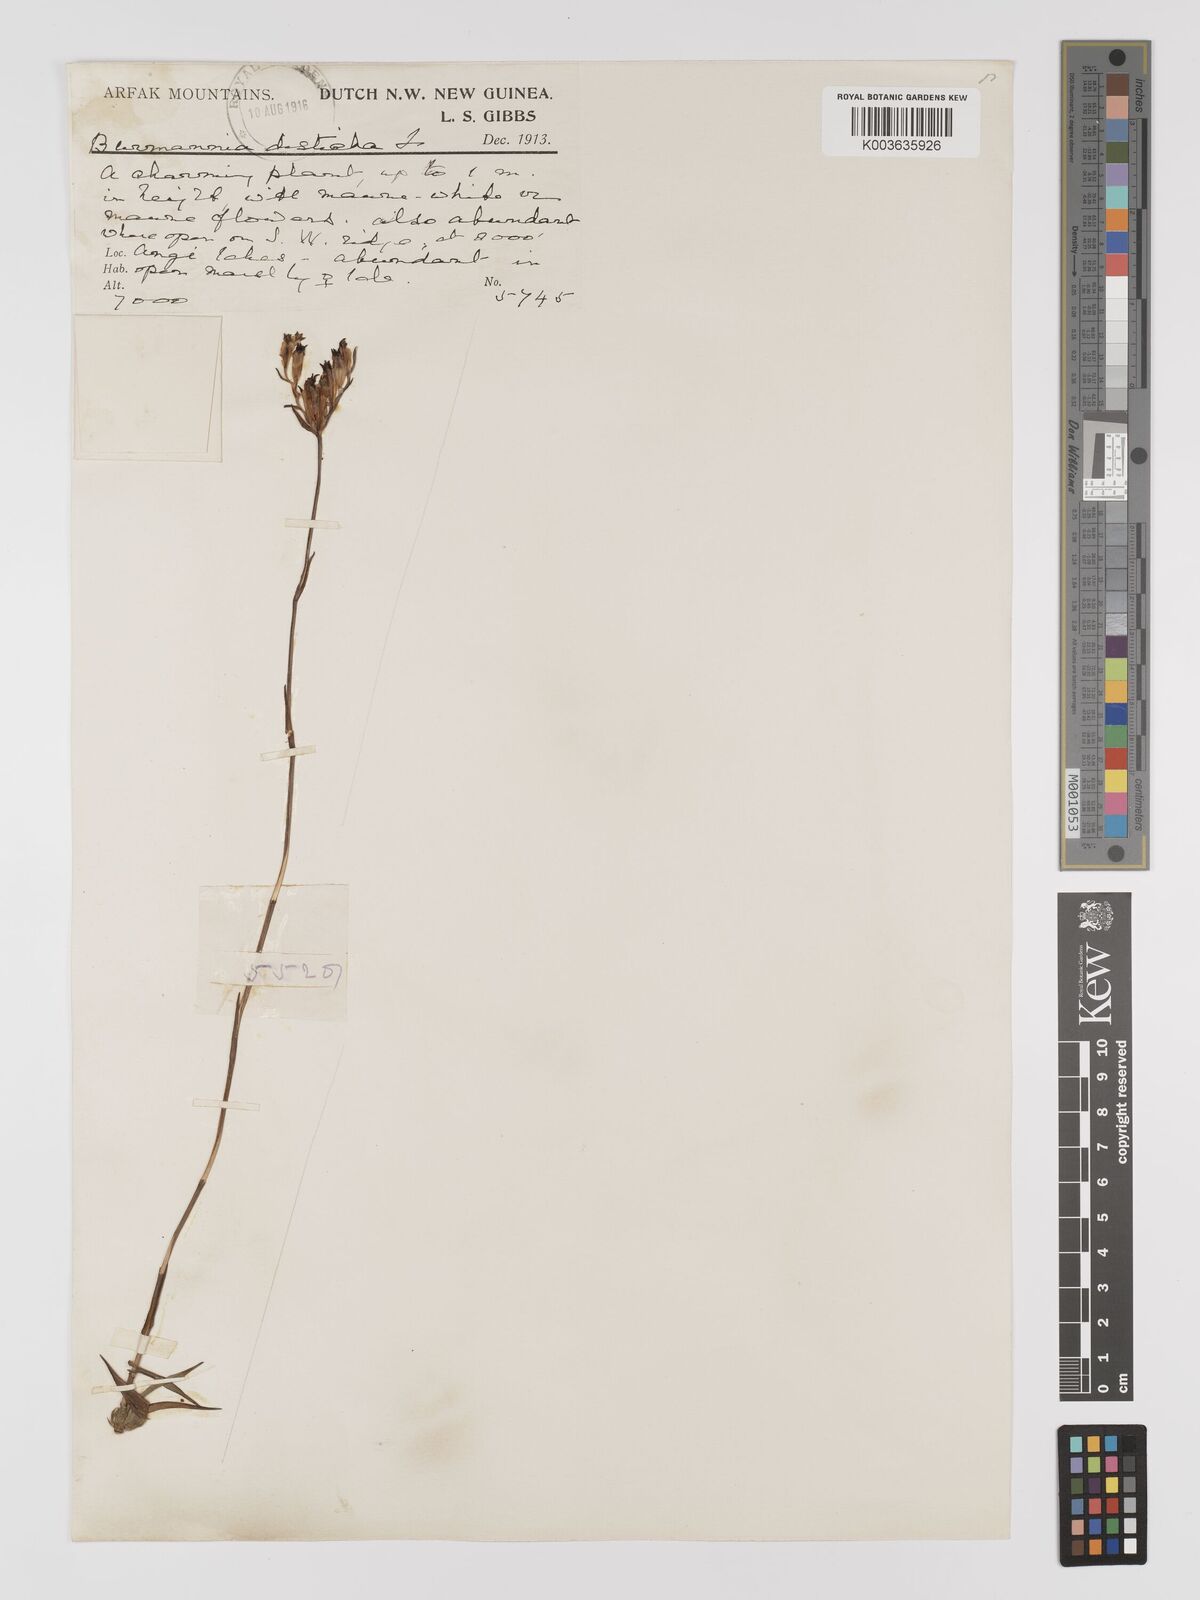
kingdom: Plantae
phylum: Tracheophyta
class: Liliopsida
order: Dioscoreales
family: Burmanniaceae
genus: Burmannia
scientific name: Burmannia disticha
